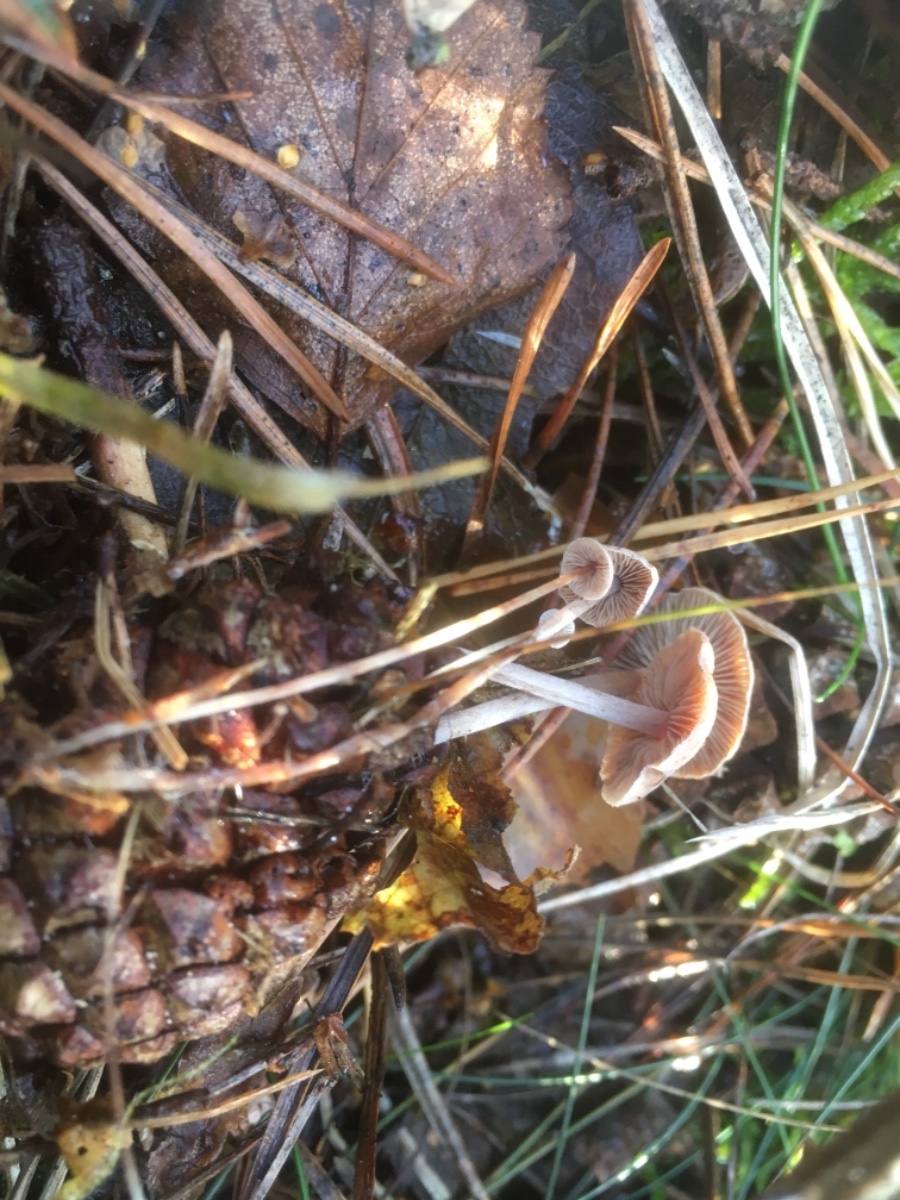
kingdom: Fungi
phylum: Basidiomycota
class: Agaricomycetes
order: Agaricales
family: Marasmiaceae
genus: Baeospora
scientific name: Baeospora myosura
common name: koglebruskhat
